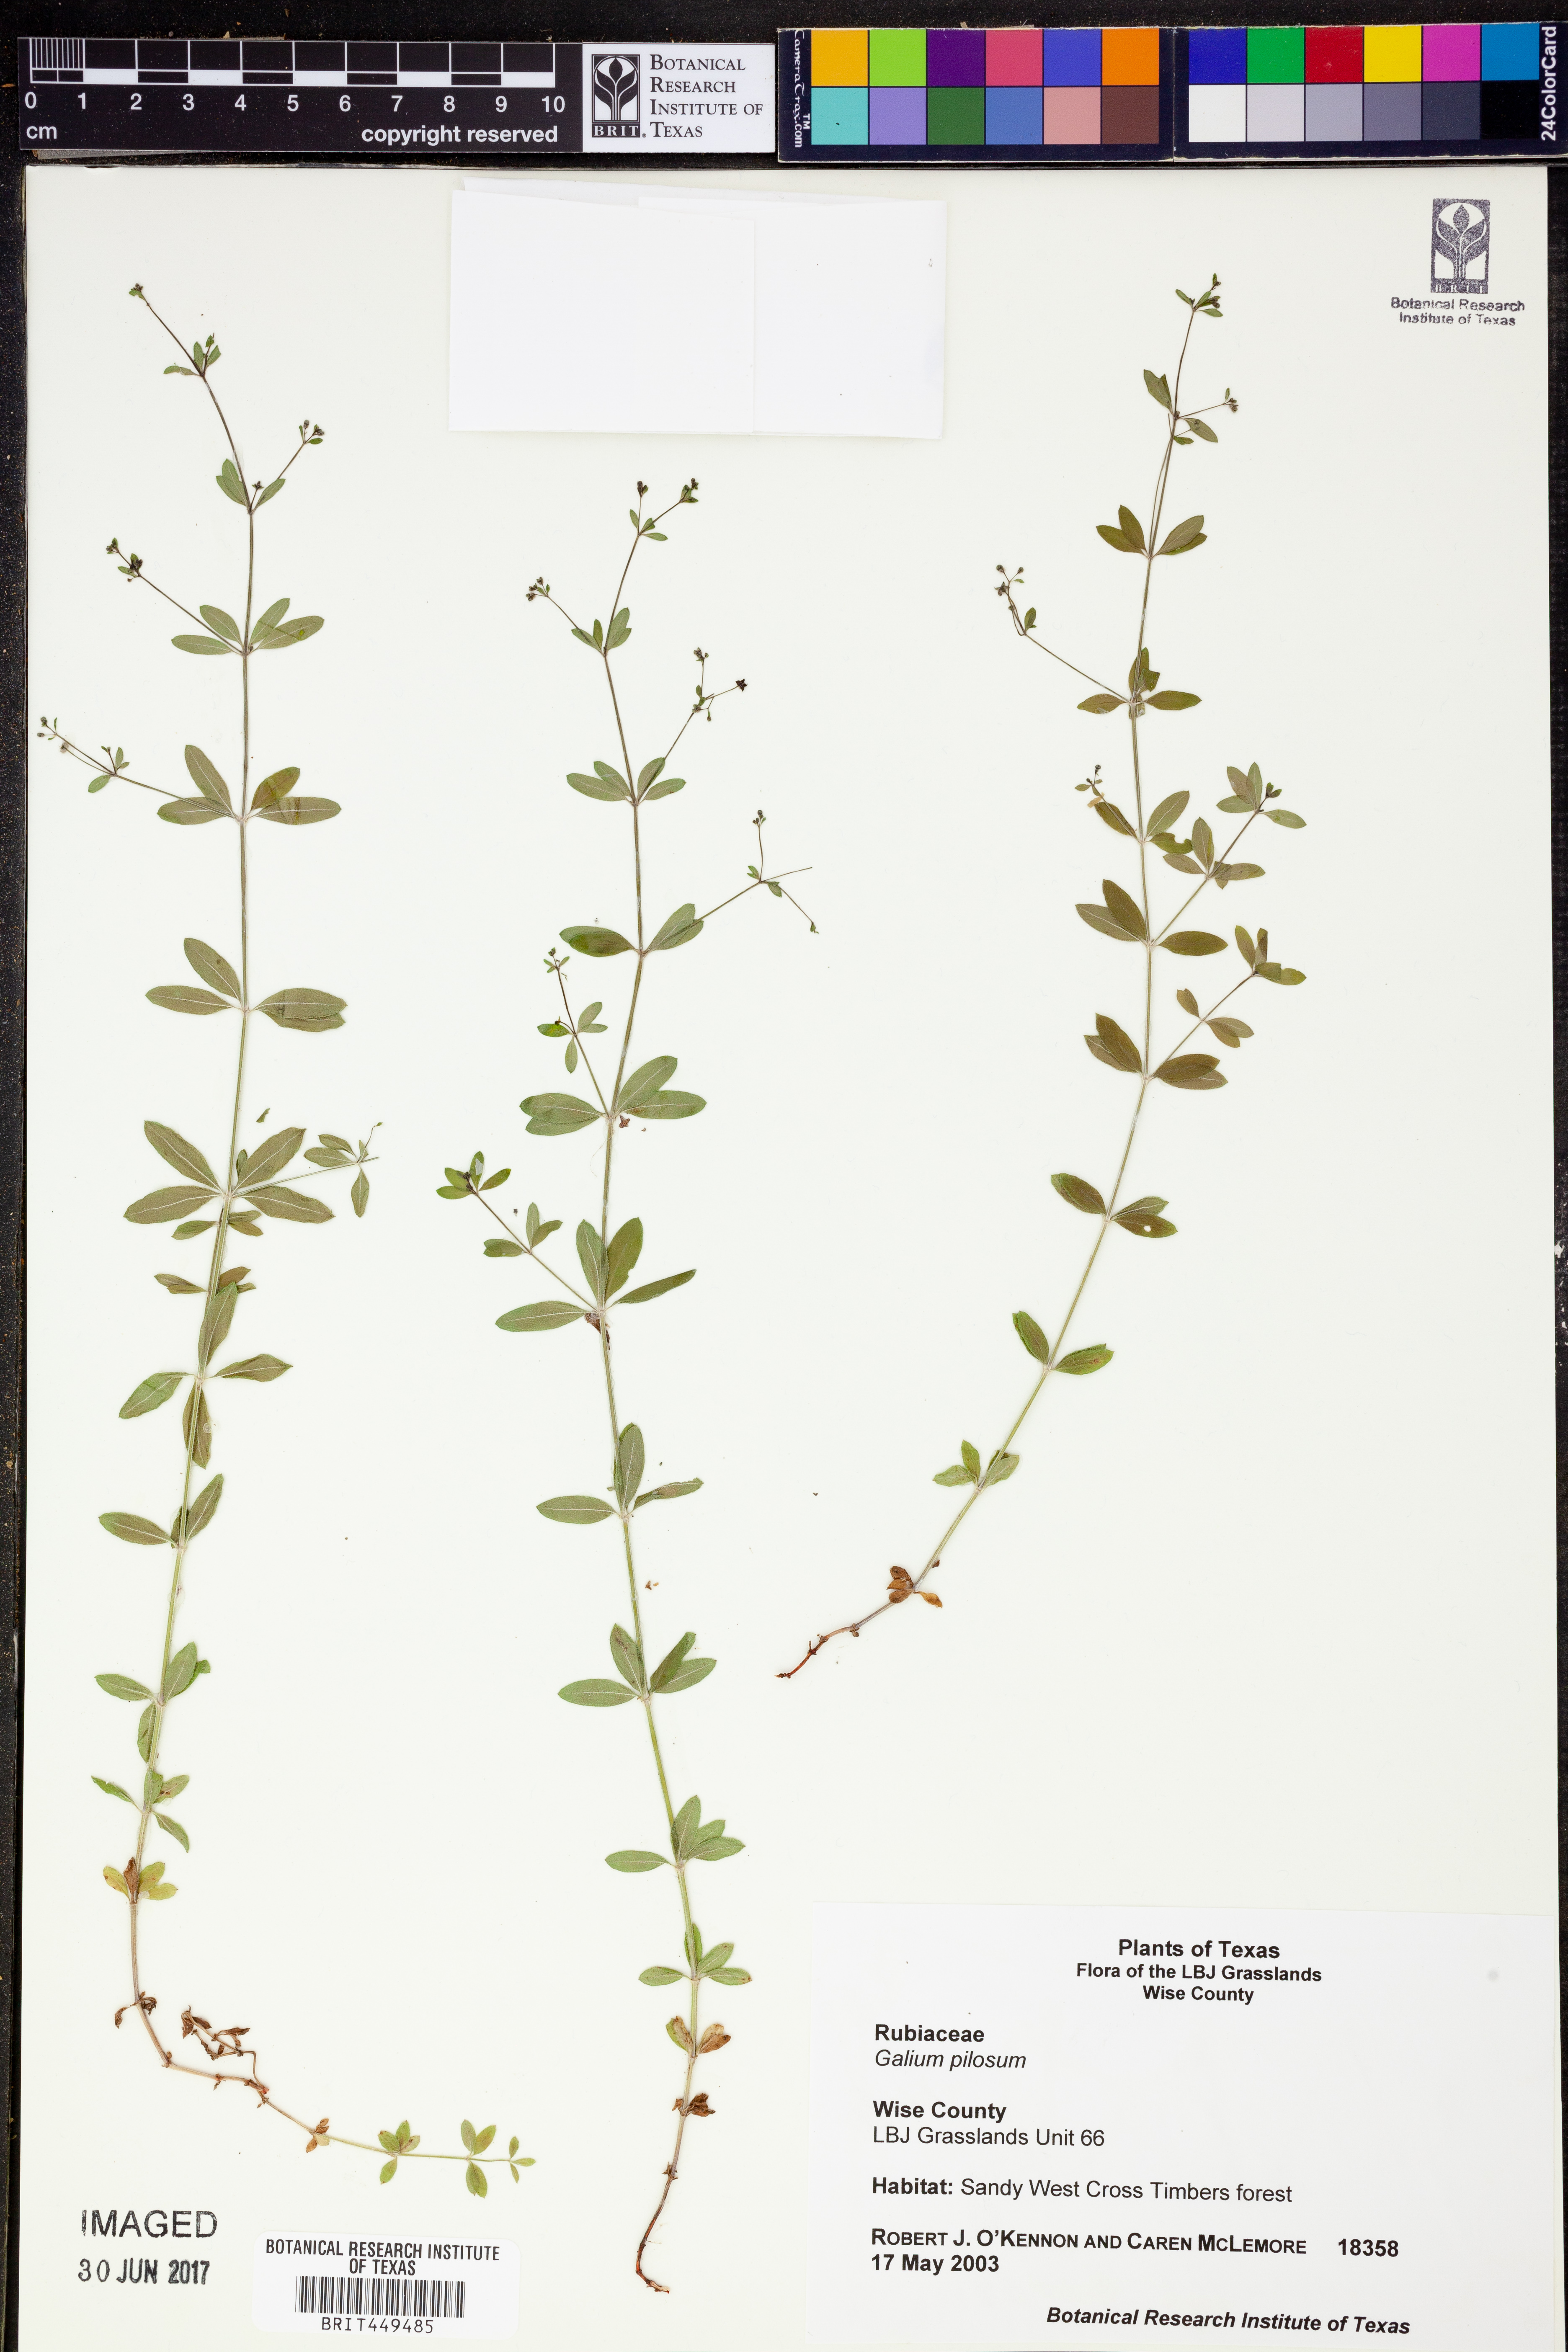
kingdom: Plantae
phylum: Tracheophyta
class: Magnoliopsida
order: Gentianales
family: Rubiaceae
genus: Galium
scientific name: Galium pilosum
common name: Hairy bedstraw
